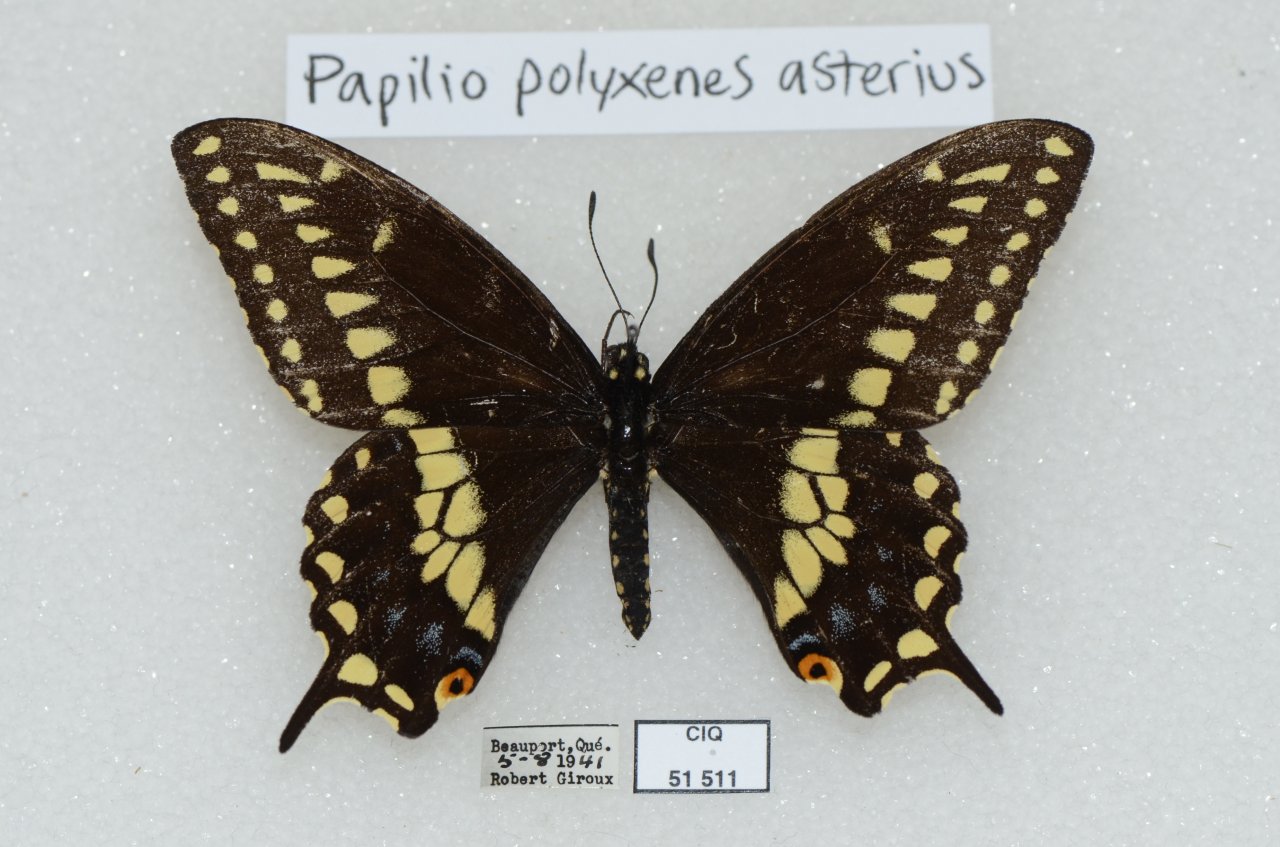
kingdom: Animalia
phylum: Arthropoda
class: Insecta
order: Lepidoptera
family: Papilionidae
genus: Papilio
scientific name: Papilio polyxenes
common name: Black Swallowtail
